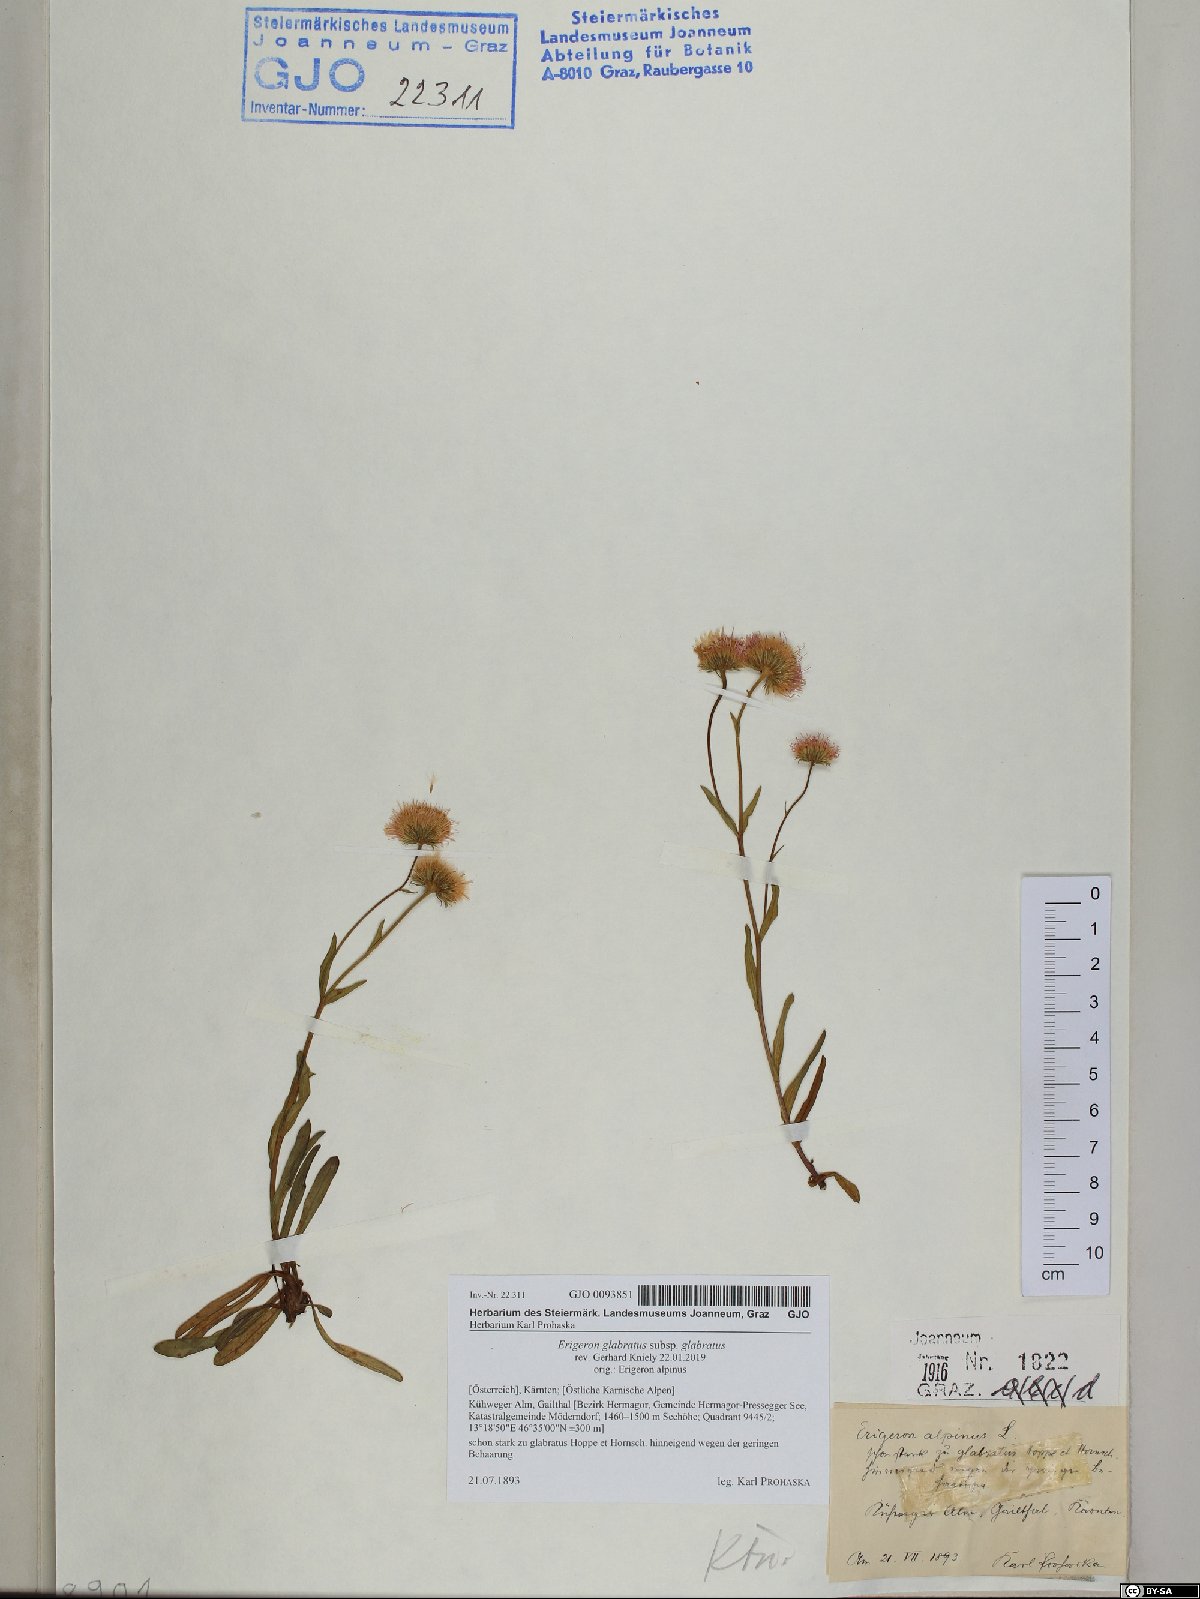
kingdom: Plantae
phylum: Tracheophyta
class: Magnoliopsida
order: Asterales
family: Asteraceae
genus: Erigeron
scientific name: Erigeron glabratus
